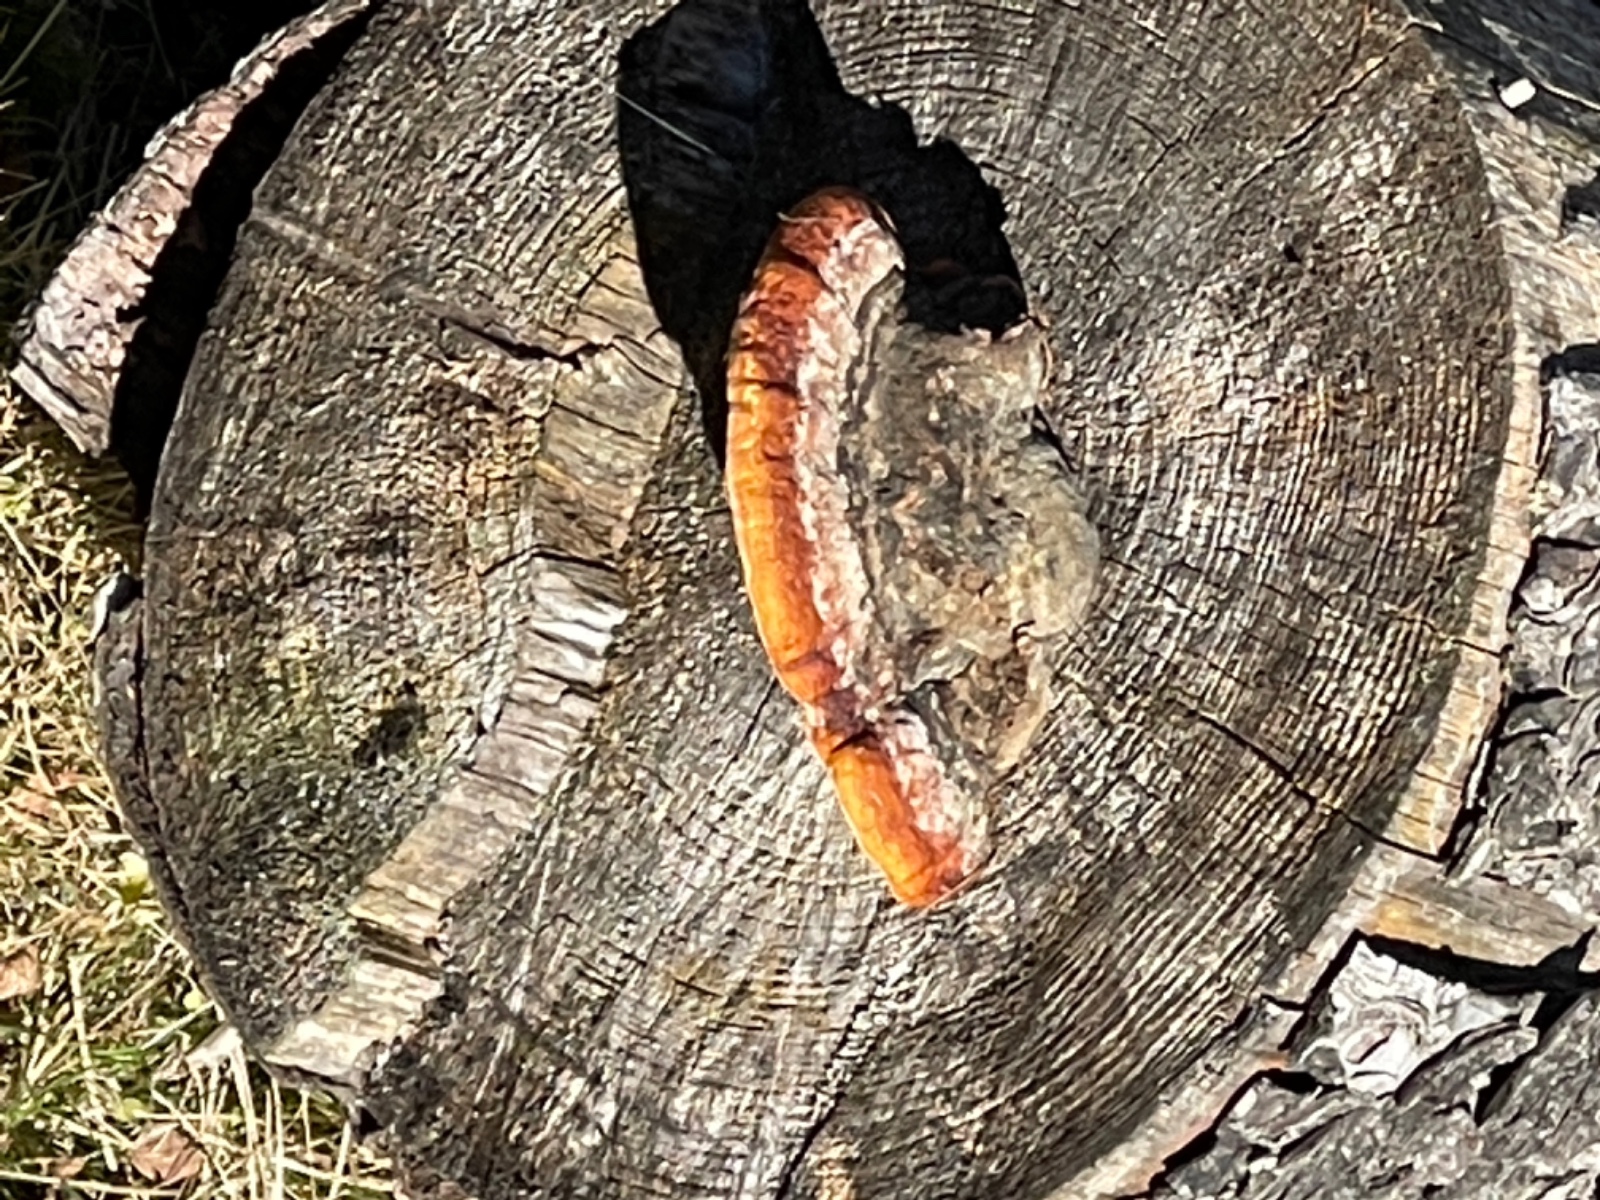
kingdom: Fungi
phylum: Basidiomycota
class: Agaricomycetes
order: Polyporales
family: Fomitopsidaceae
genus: Fomitopsis
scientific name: Fomitopsis pinicola
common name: randbæltet hovporesvamp
